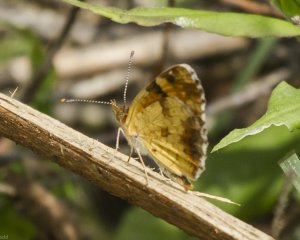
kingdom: Animalia
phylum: Arthropoda
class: Insecta
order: Lepidoptera
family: Nymphalidae
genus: Phyciodes
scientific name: Phyciodes tharos
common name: Northern Crescent
